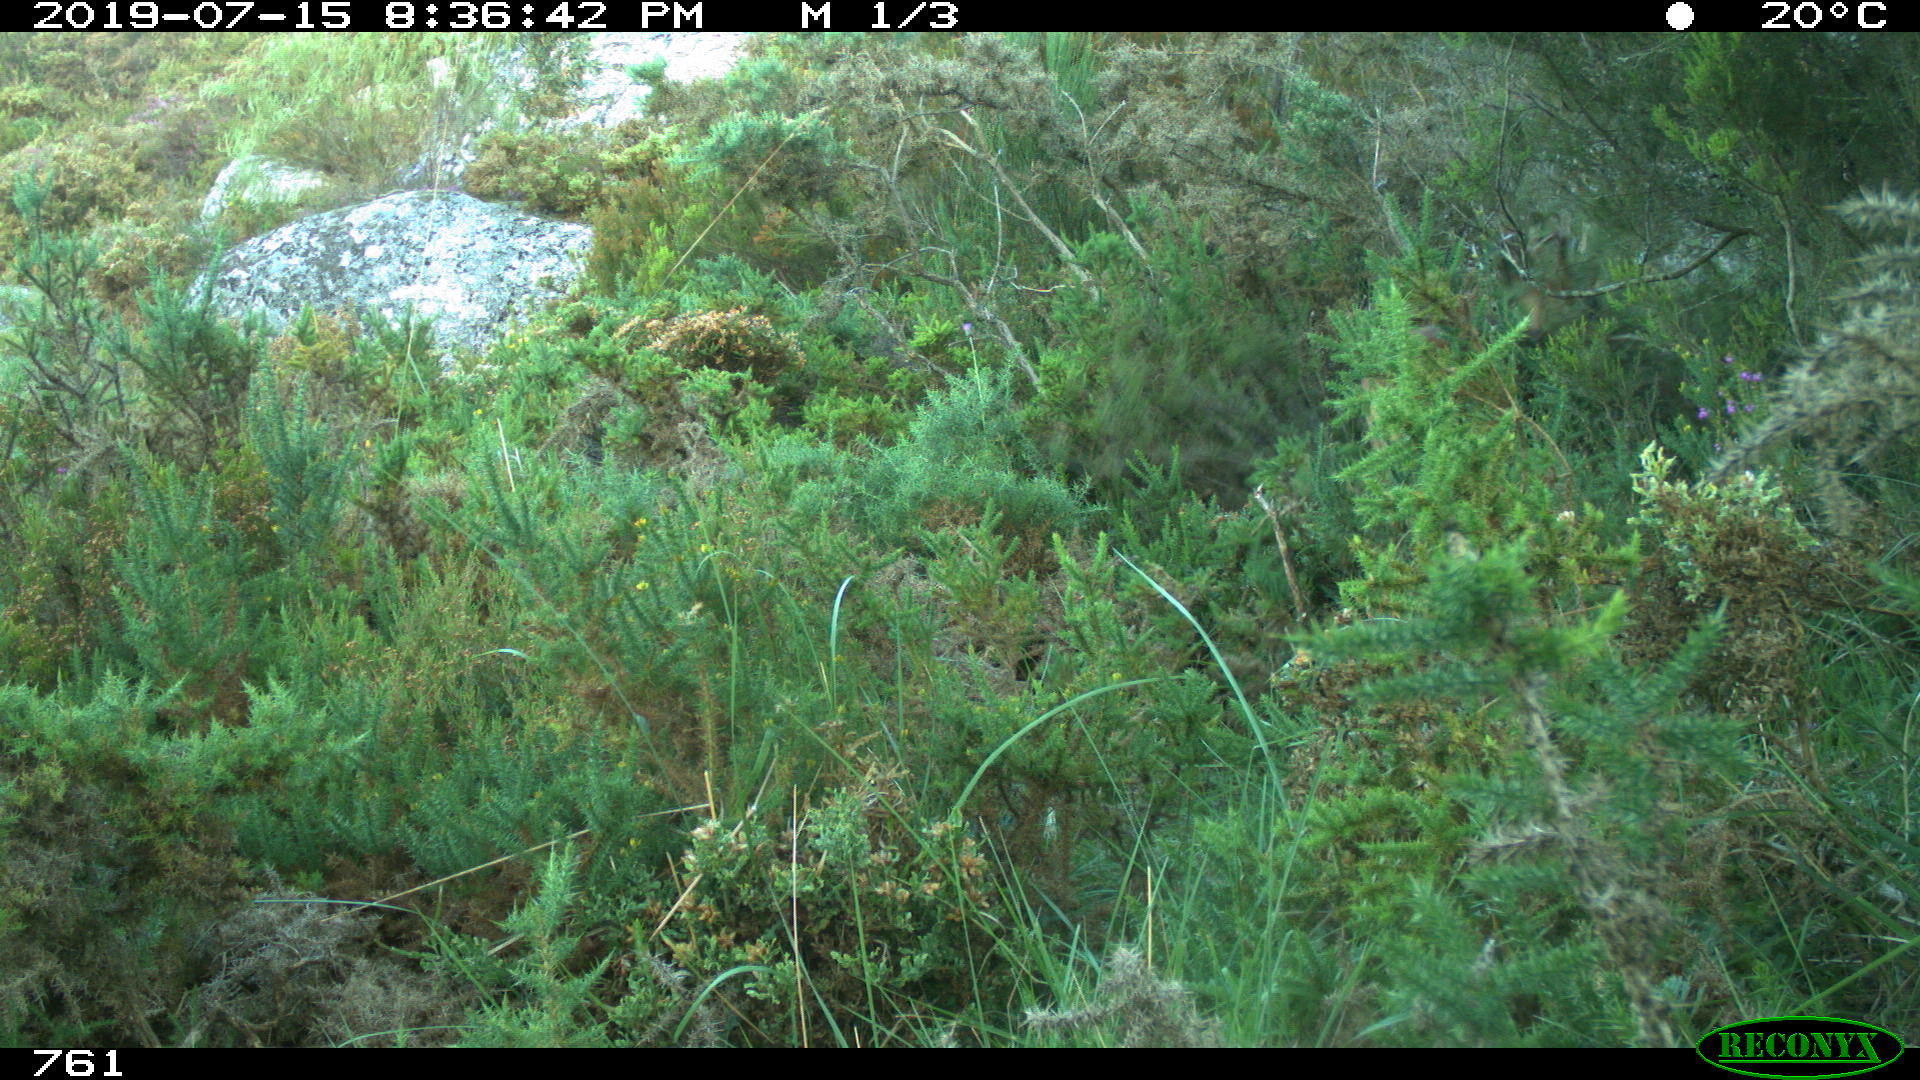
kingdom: Animalia
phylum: Chordata
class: Mammalia
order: Artiodactyla
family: Cervidae
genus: Capreolus
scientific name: Capreolus capreolus
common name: Western roe deer
